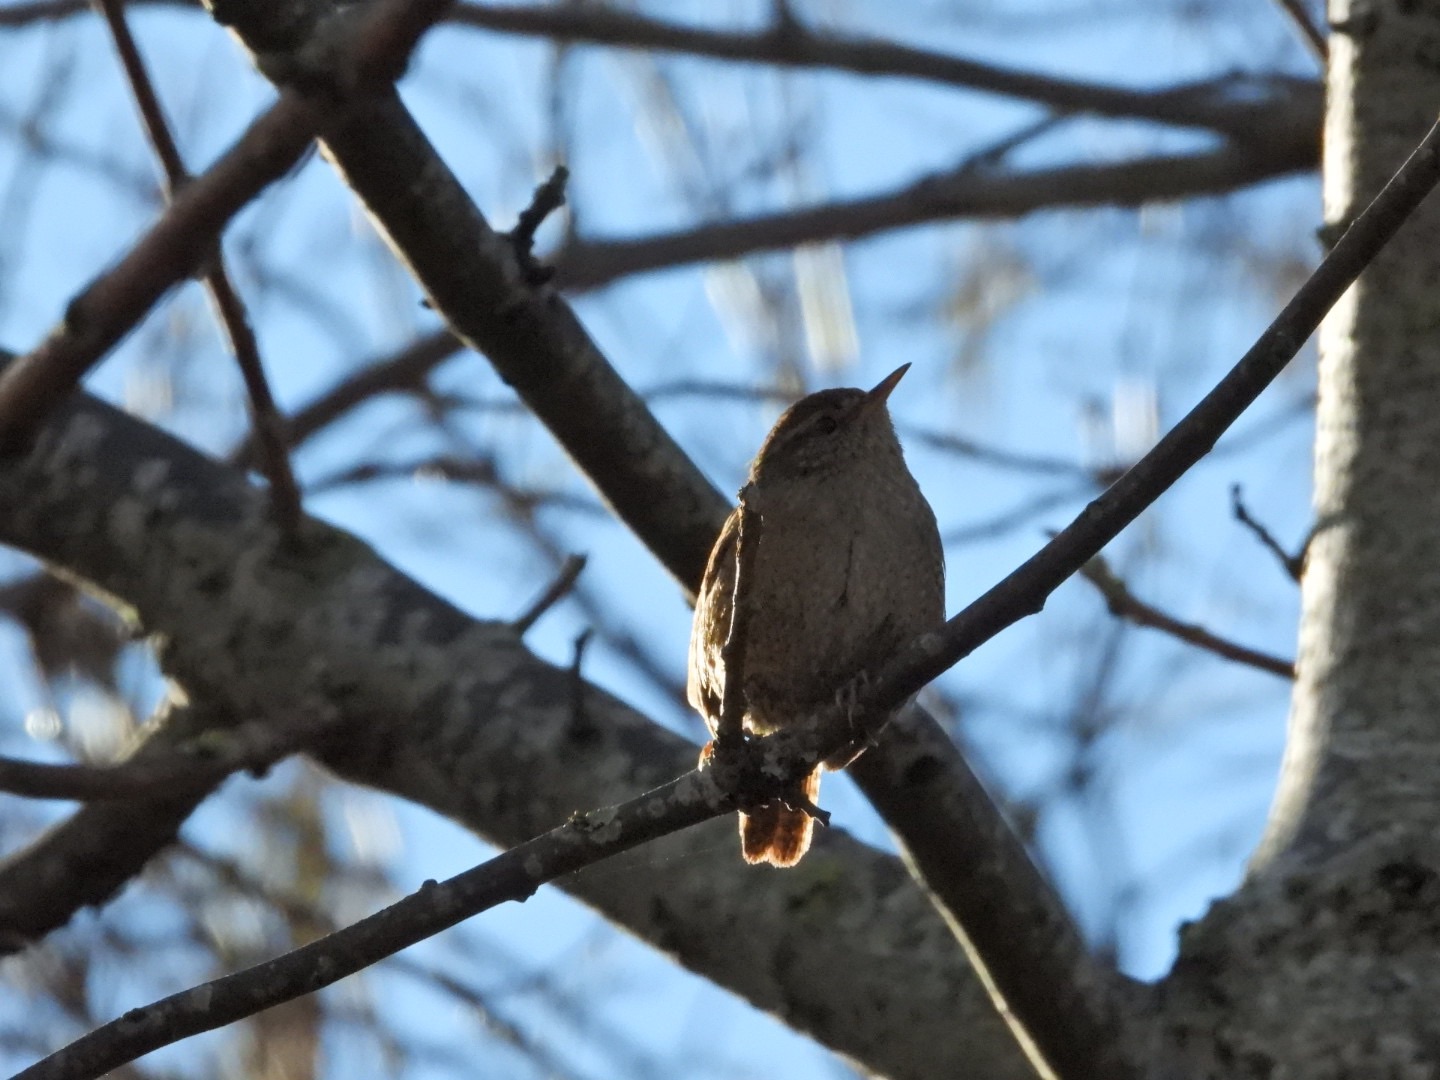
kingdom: Animalia
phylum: Chordata
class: Aves
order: Passeriformes
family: Troglodytidae
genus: Troglodytes
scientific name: Troglodytes troglodytes
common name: Gærdesmutte
